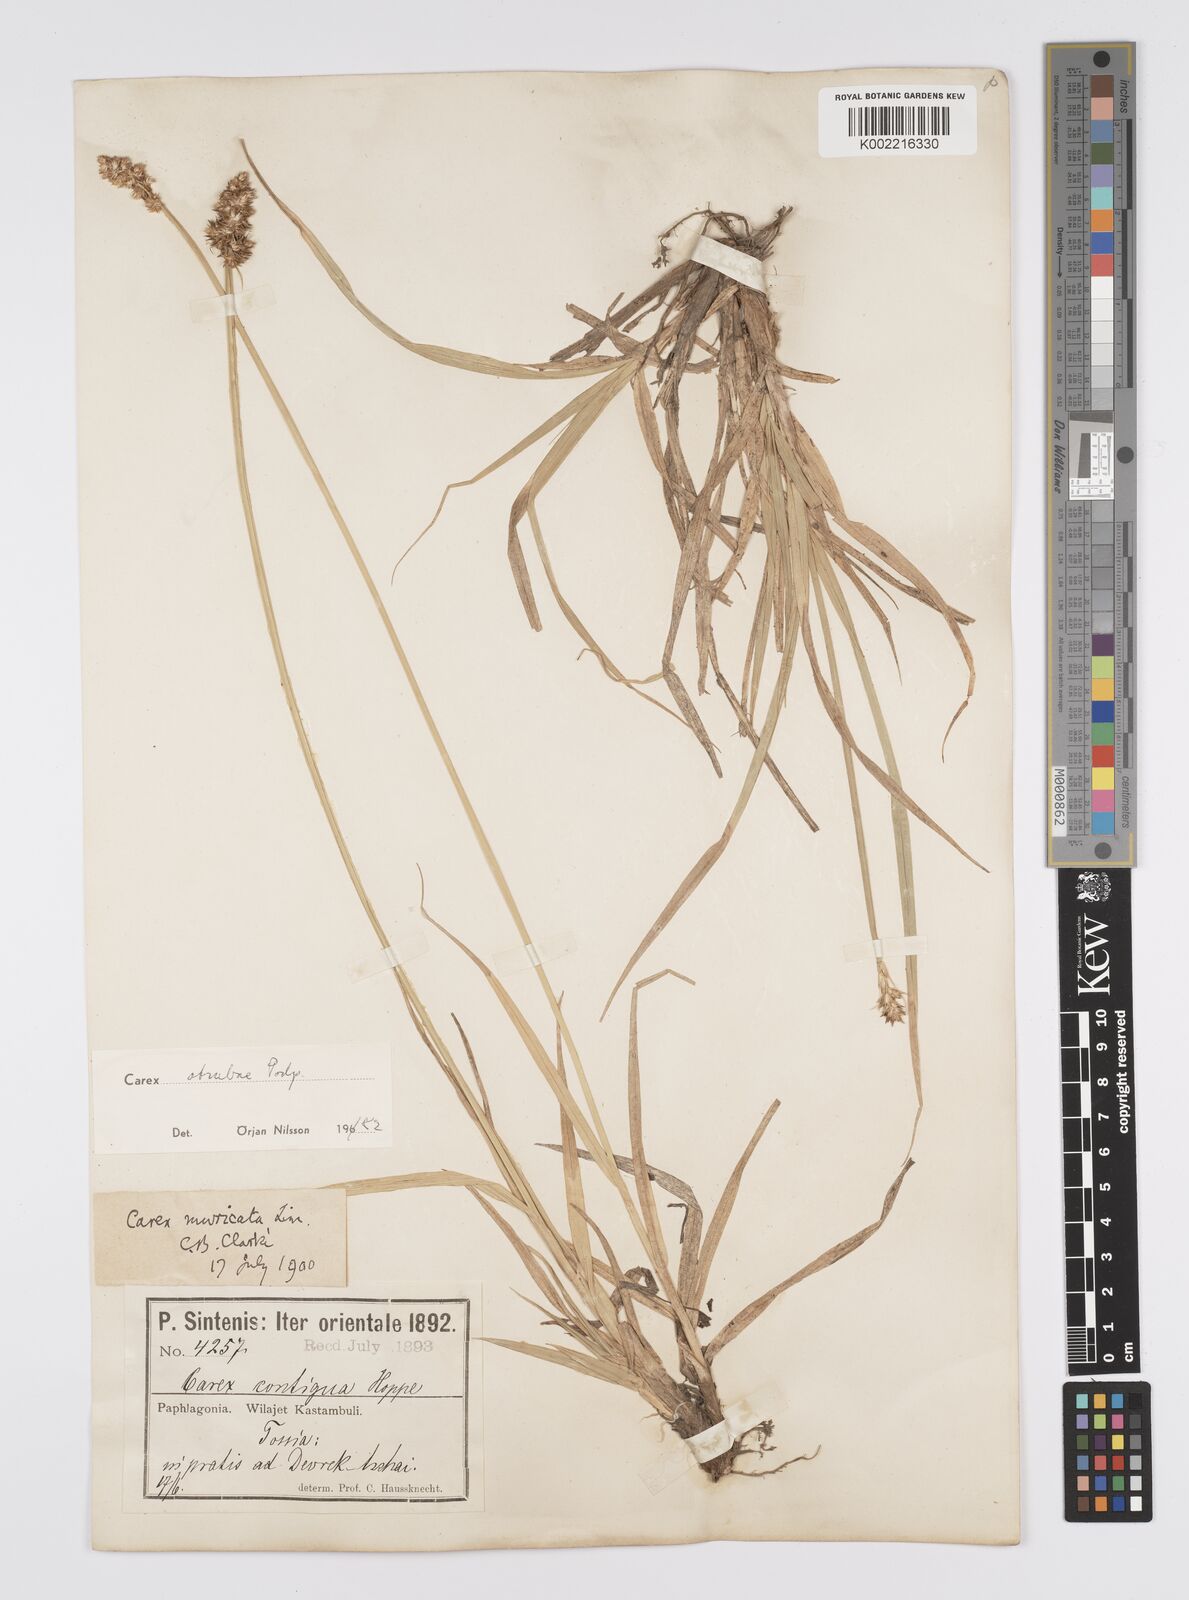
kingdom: Plantae
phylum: Tracheophyta
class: Liliopsida
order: Poales
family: Cyperaceae
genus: Carex
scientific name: Carex otrubae
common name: False fox-sedge
